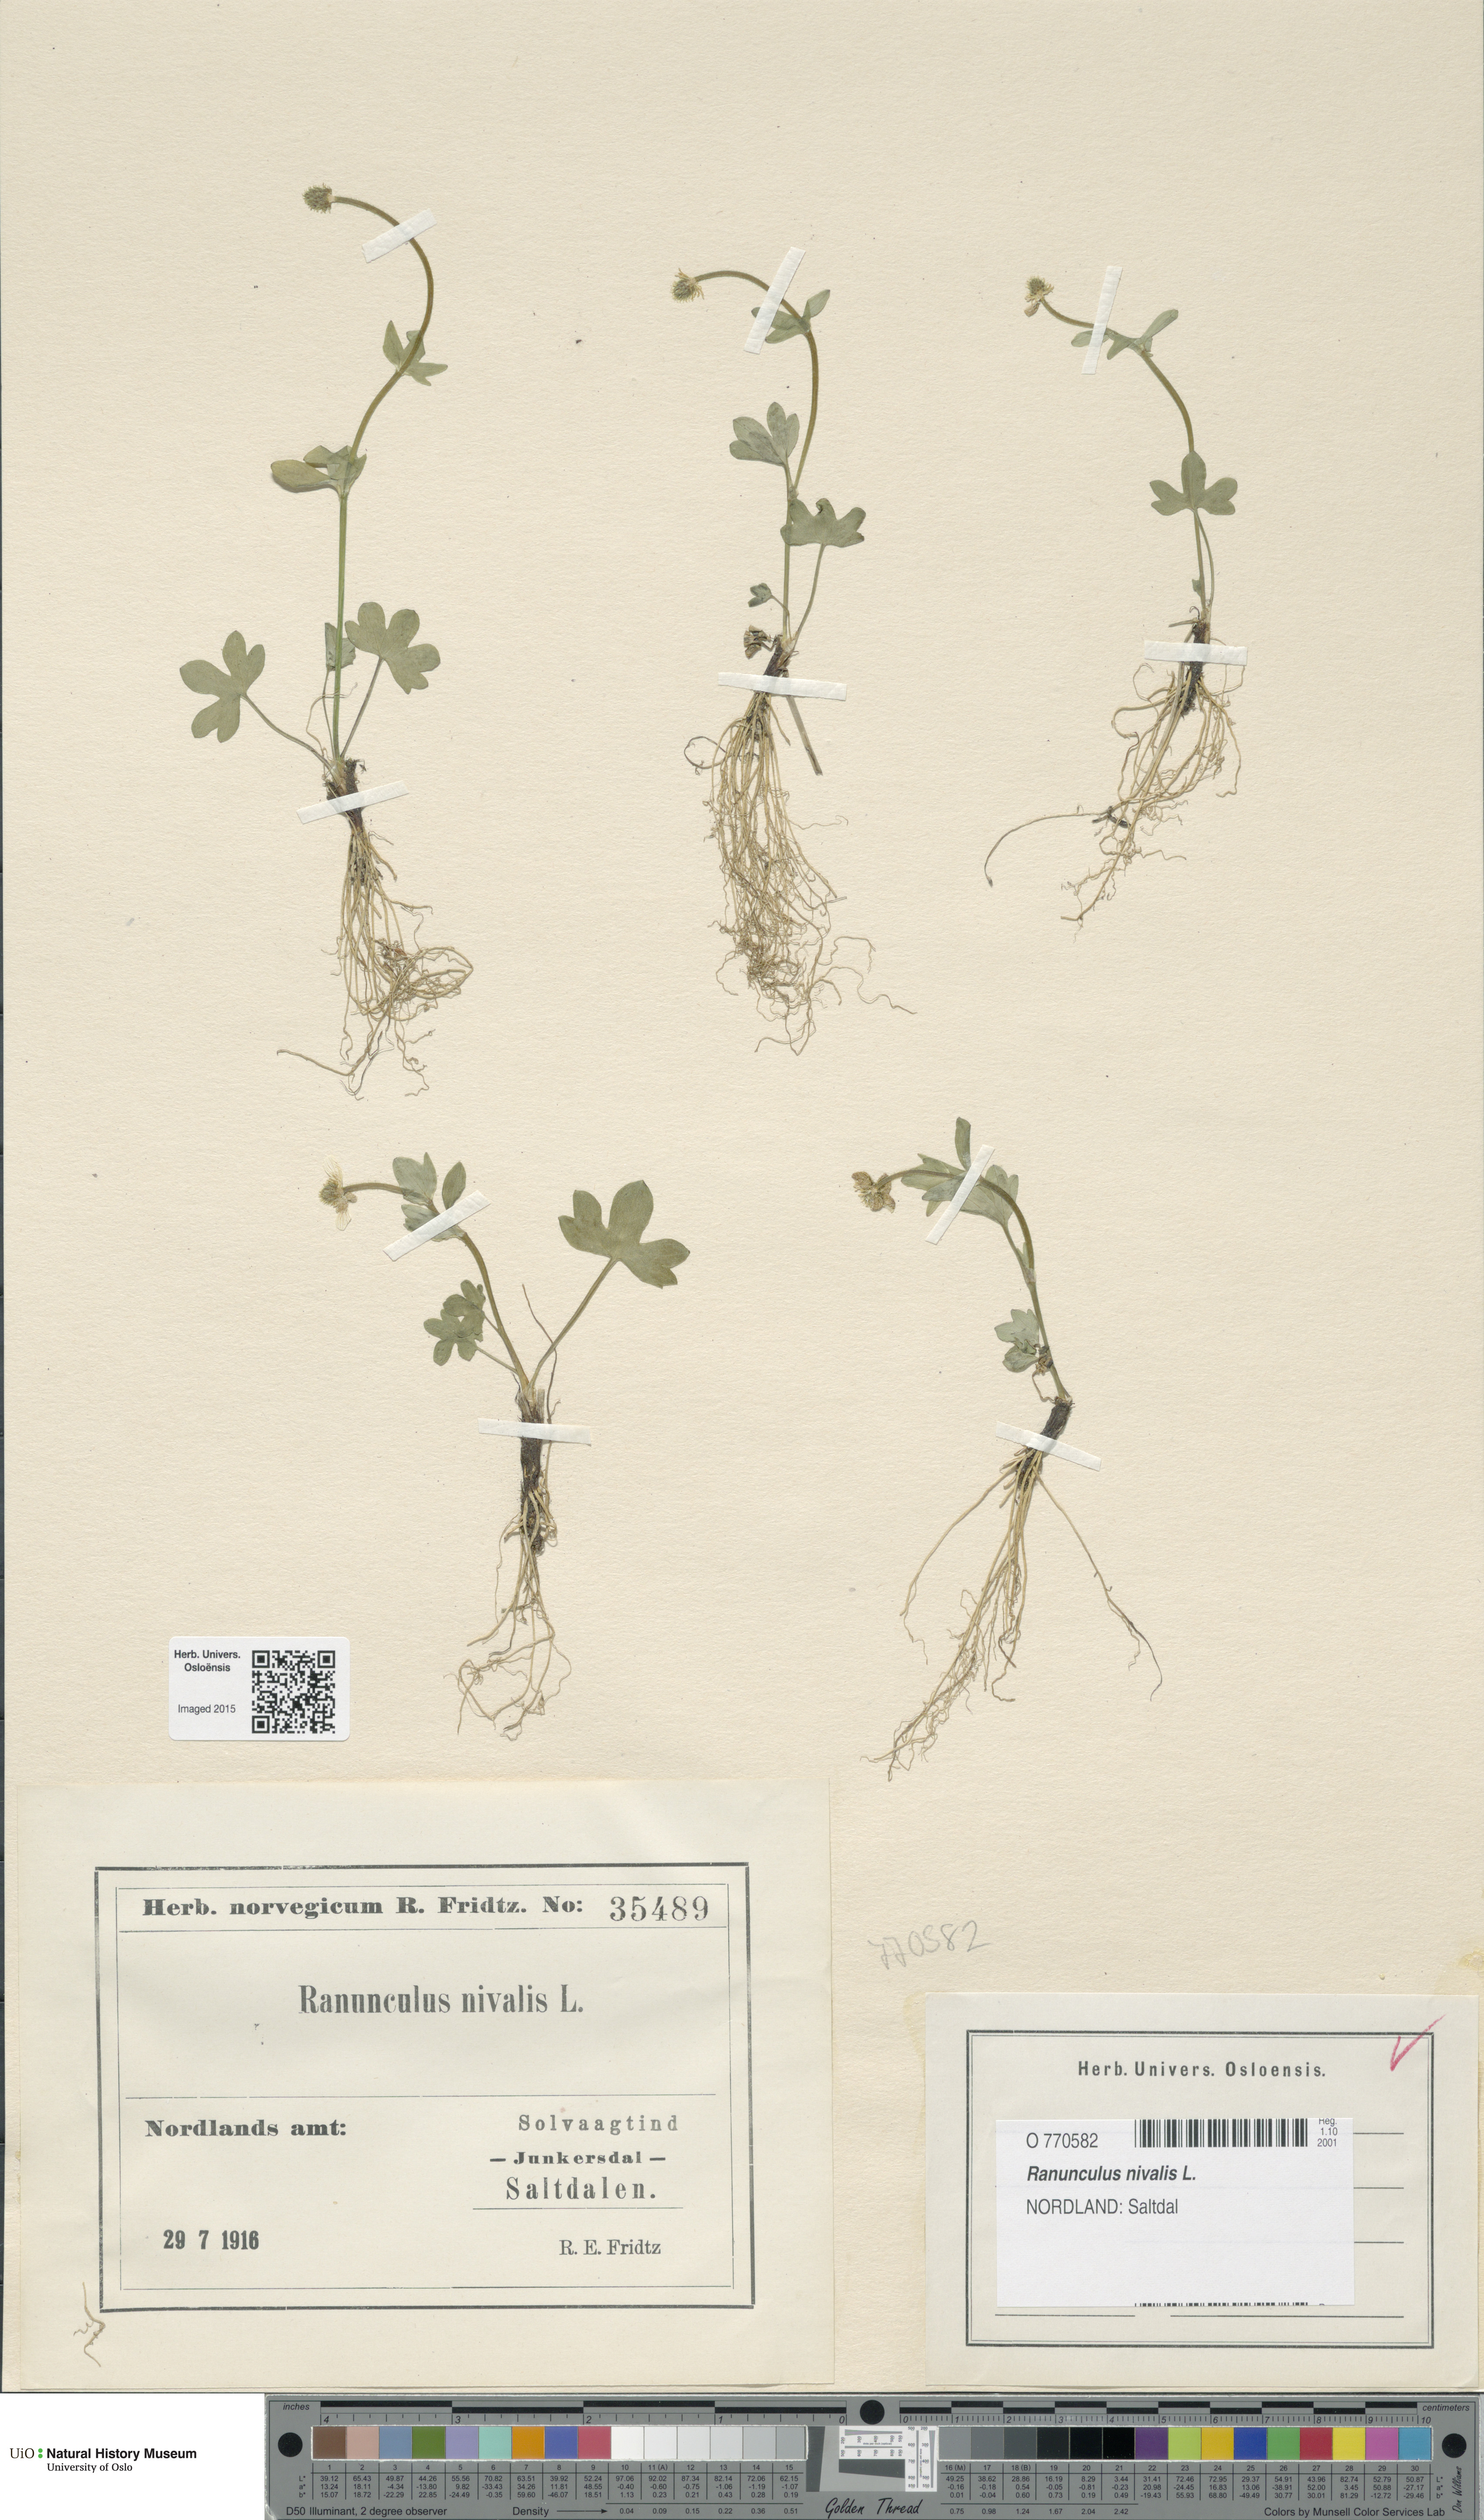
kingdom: Plantae
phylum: Tracheophyta
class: Magnoliopsida
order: Ranunculales
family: Ranunculaceae
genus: Ranunculus
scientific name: Ranunculus nivalis
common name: Snow buttercup
